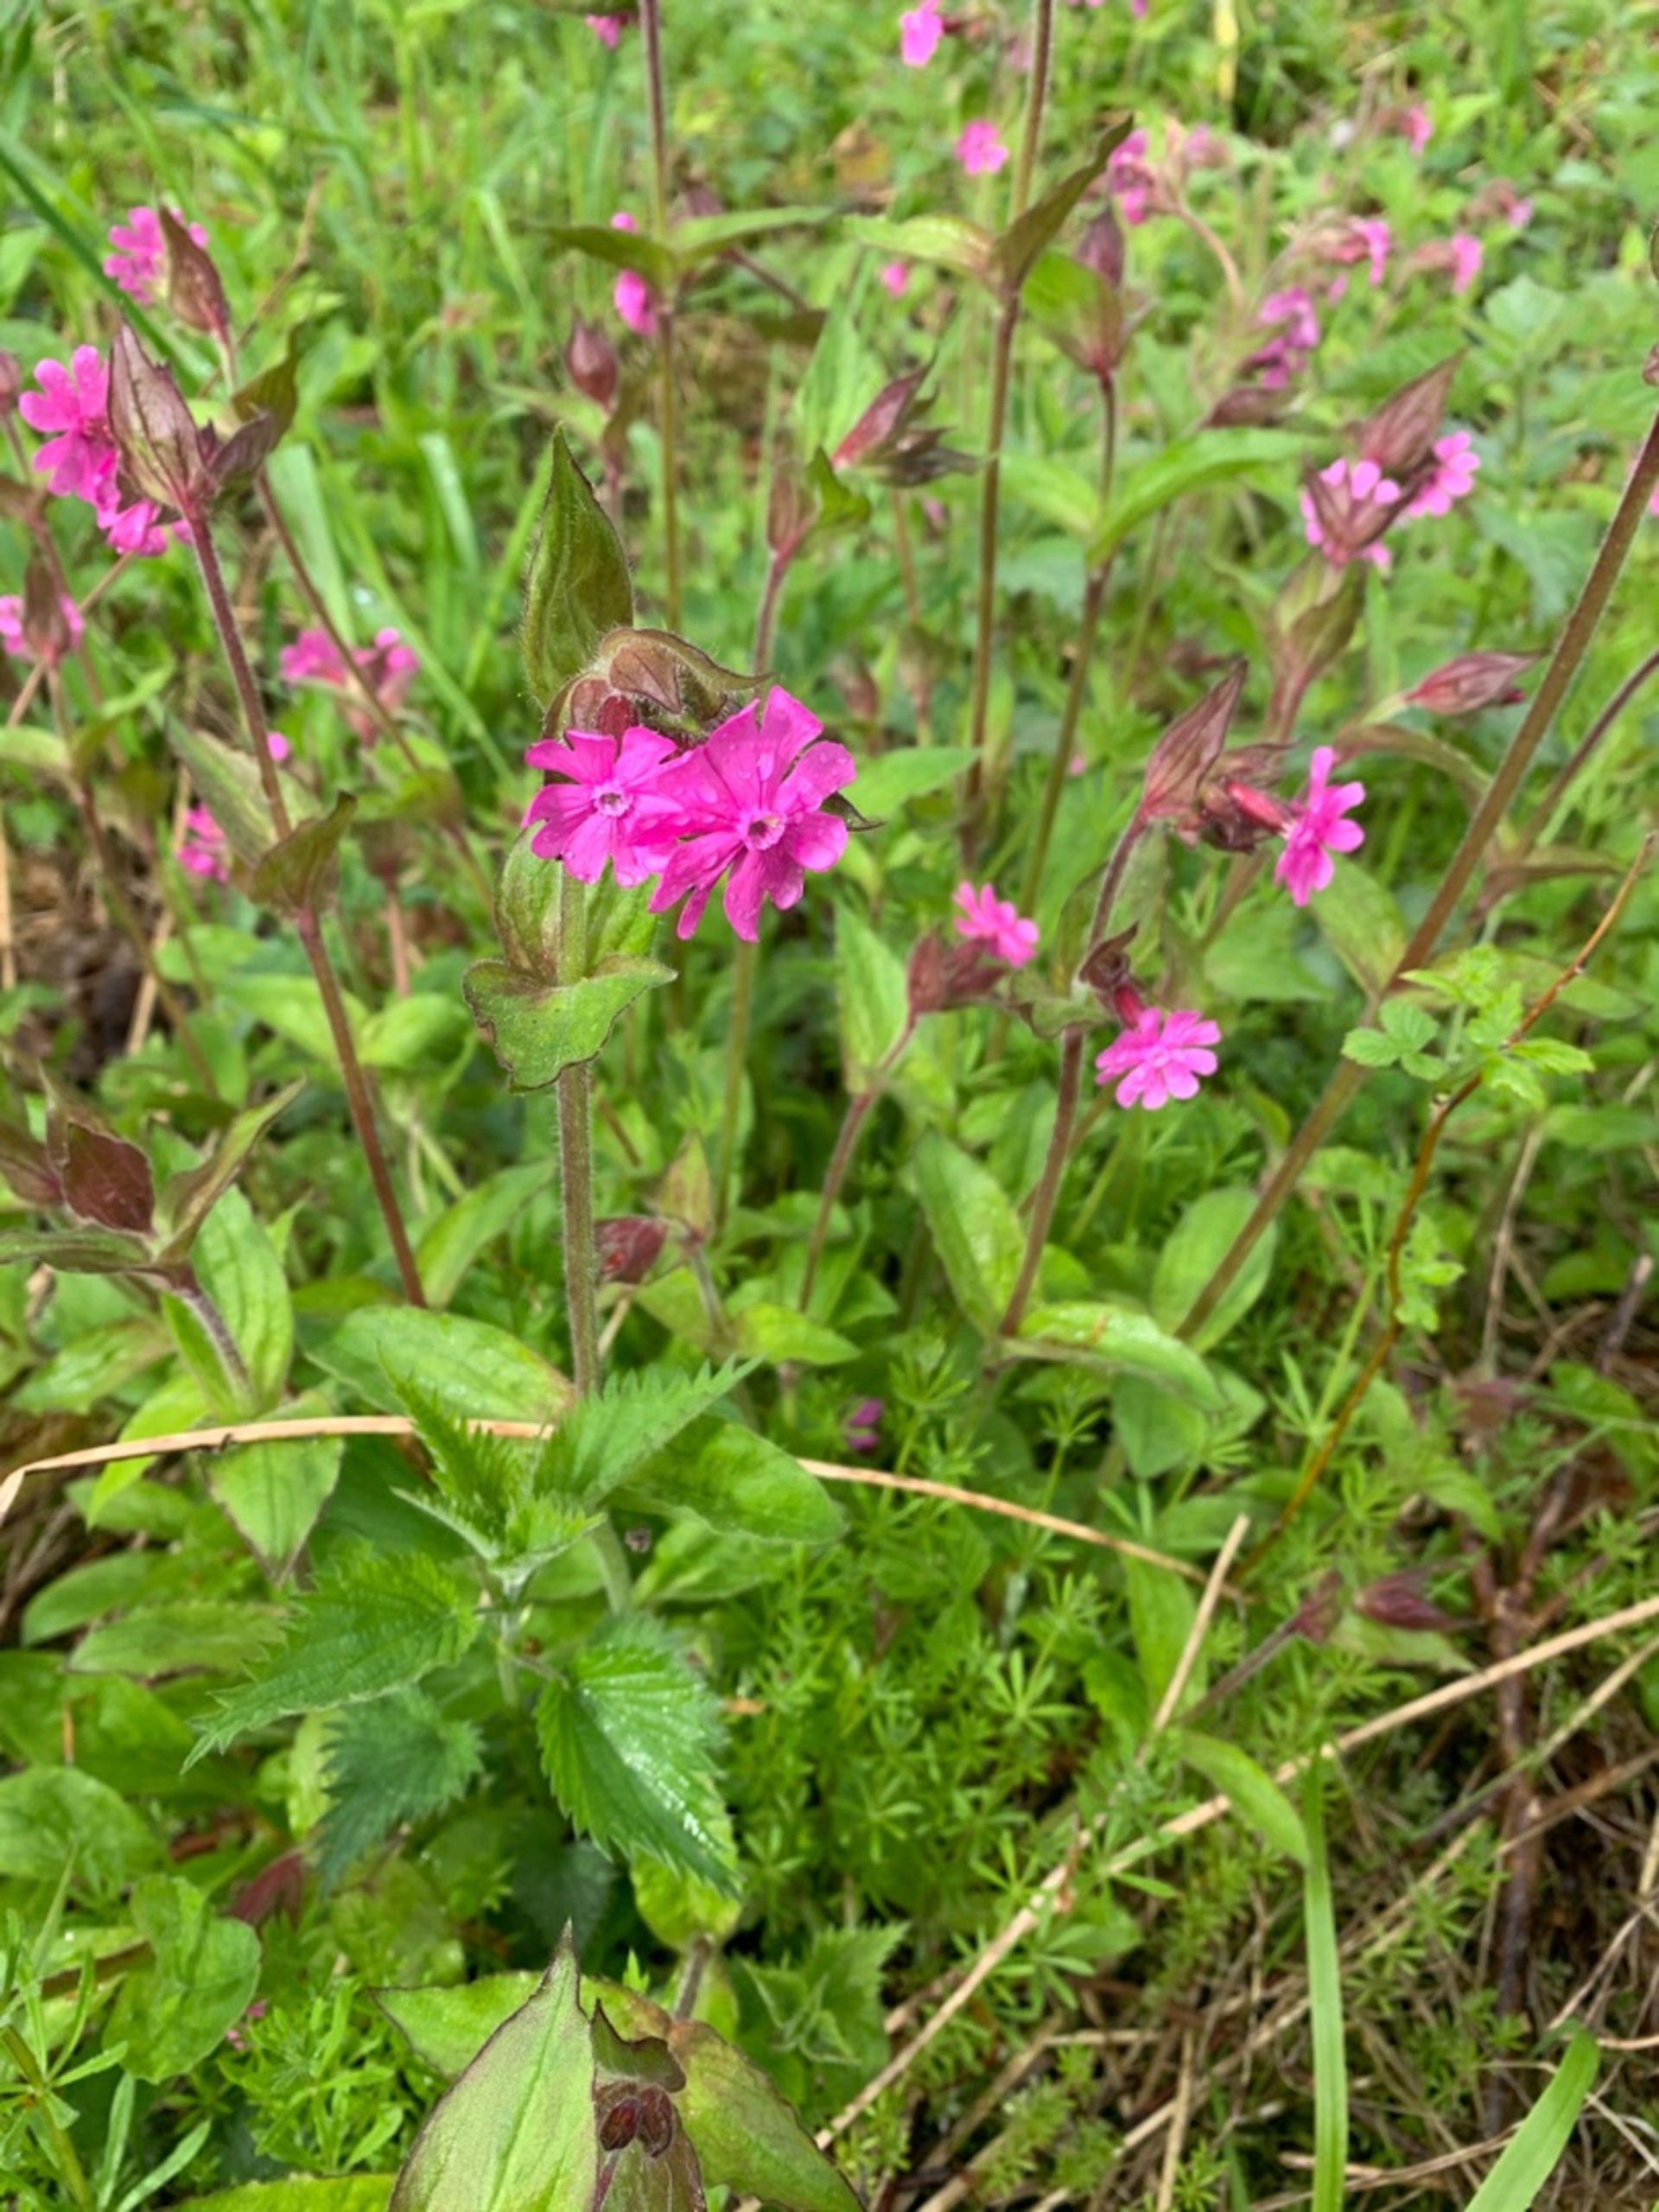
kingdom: Plantae
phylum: Tracheophyta
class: Magnoliopsida
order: Caryophyllales
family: Caryophyllaceae
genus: Silene
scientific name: Silene dioica
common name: Dagpragtstjerne
